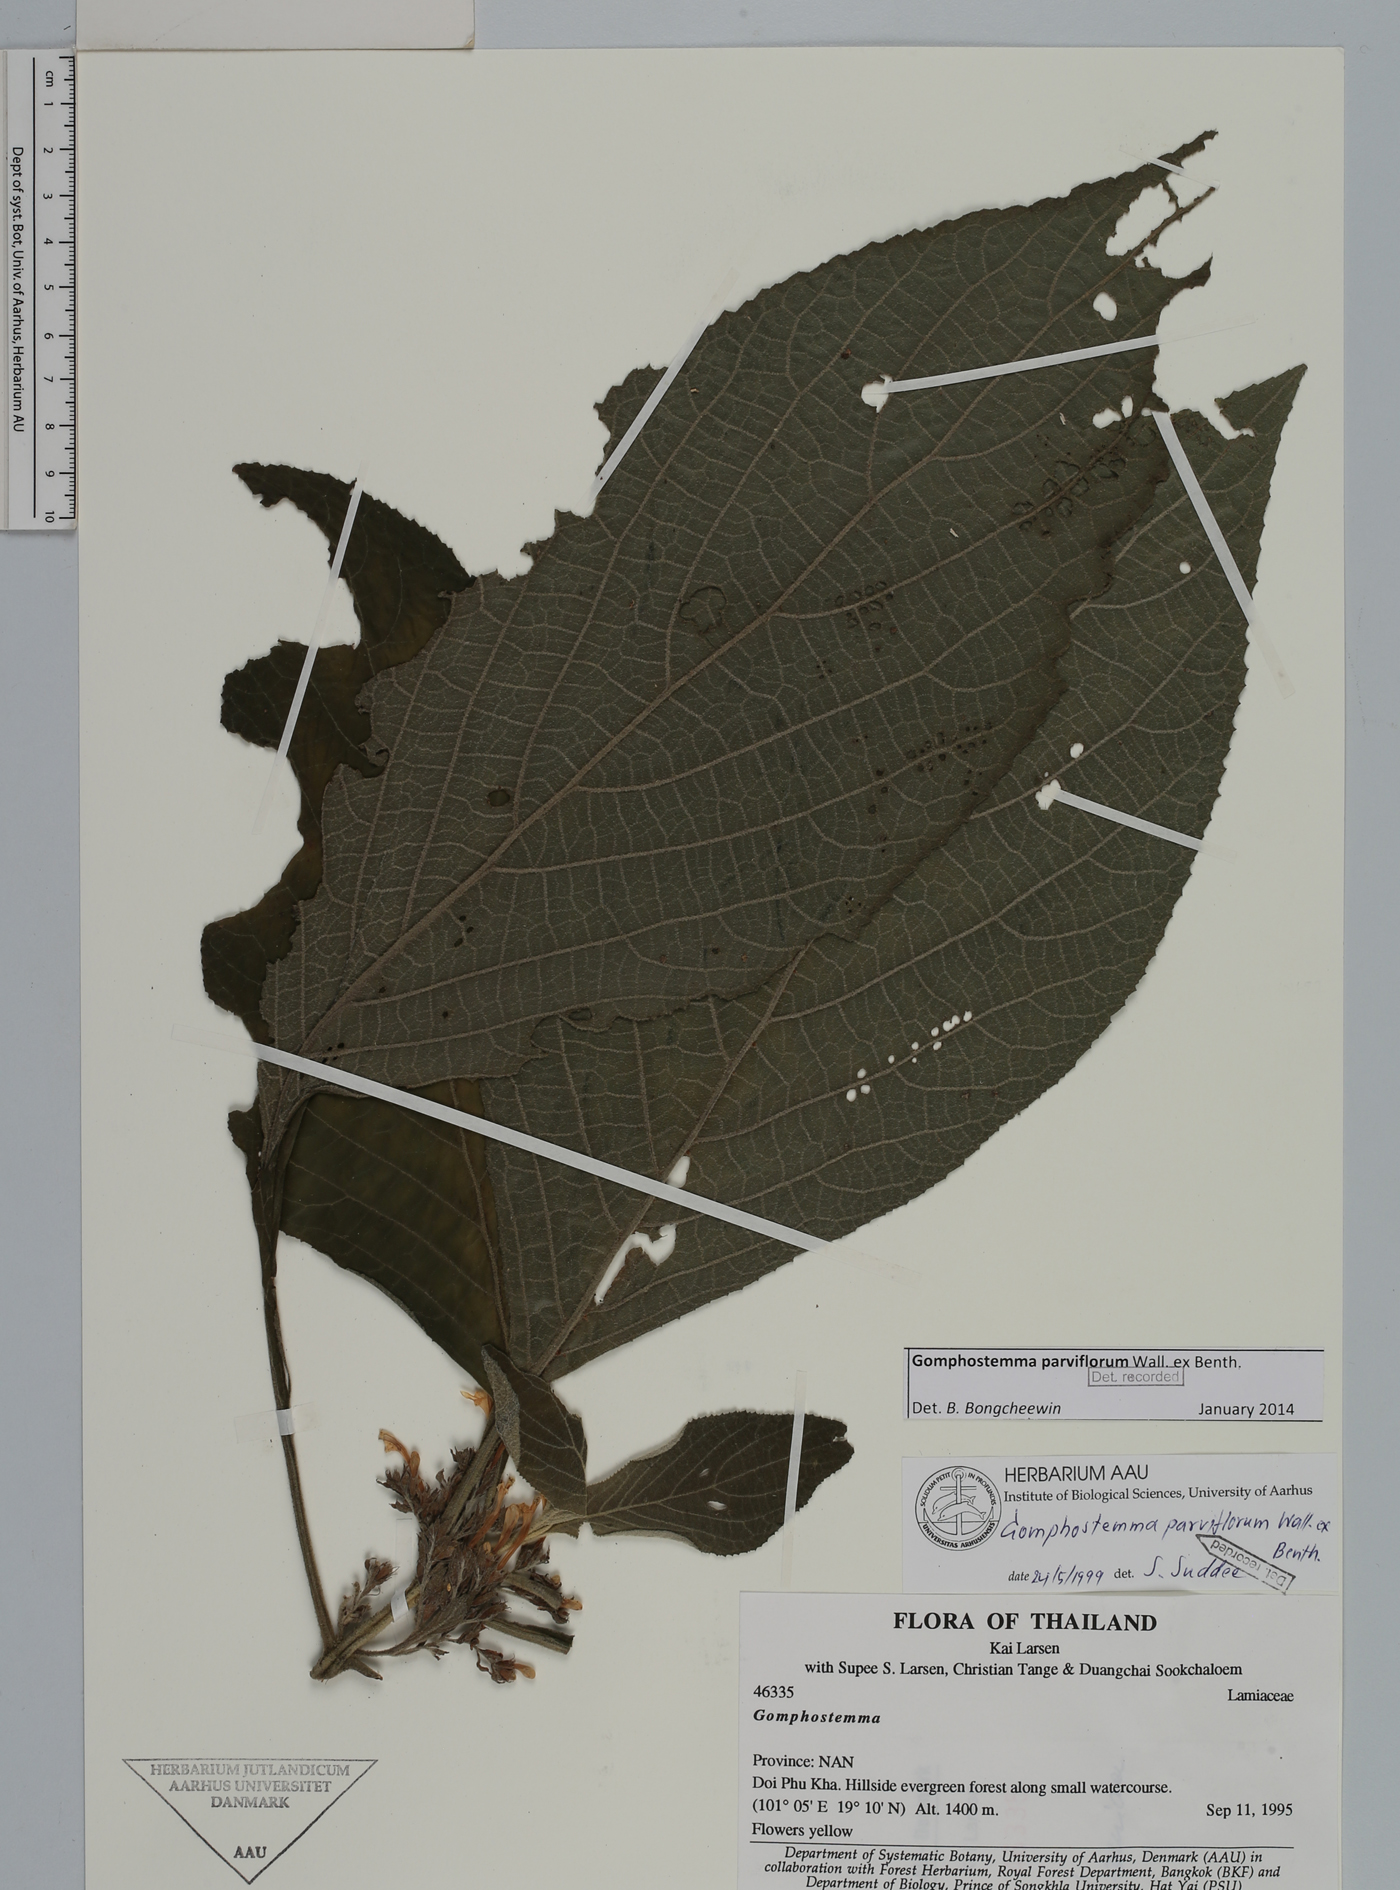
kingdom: Plantae
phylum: Tracheophyta
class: Magnoliopsida
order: Lamiales
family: Lamiaceae
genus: Gomphostemma
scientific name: Gomphostemma parviflorum
